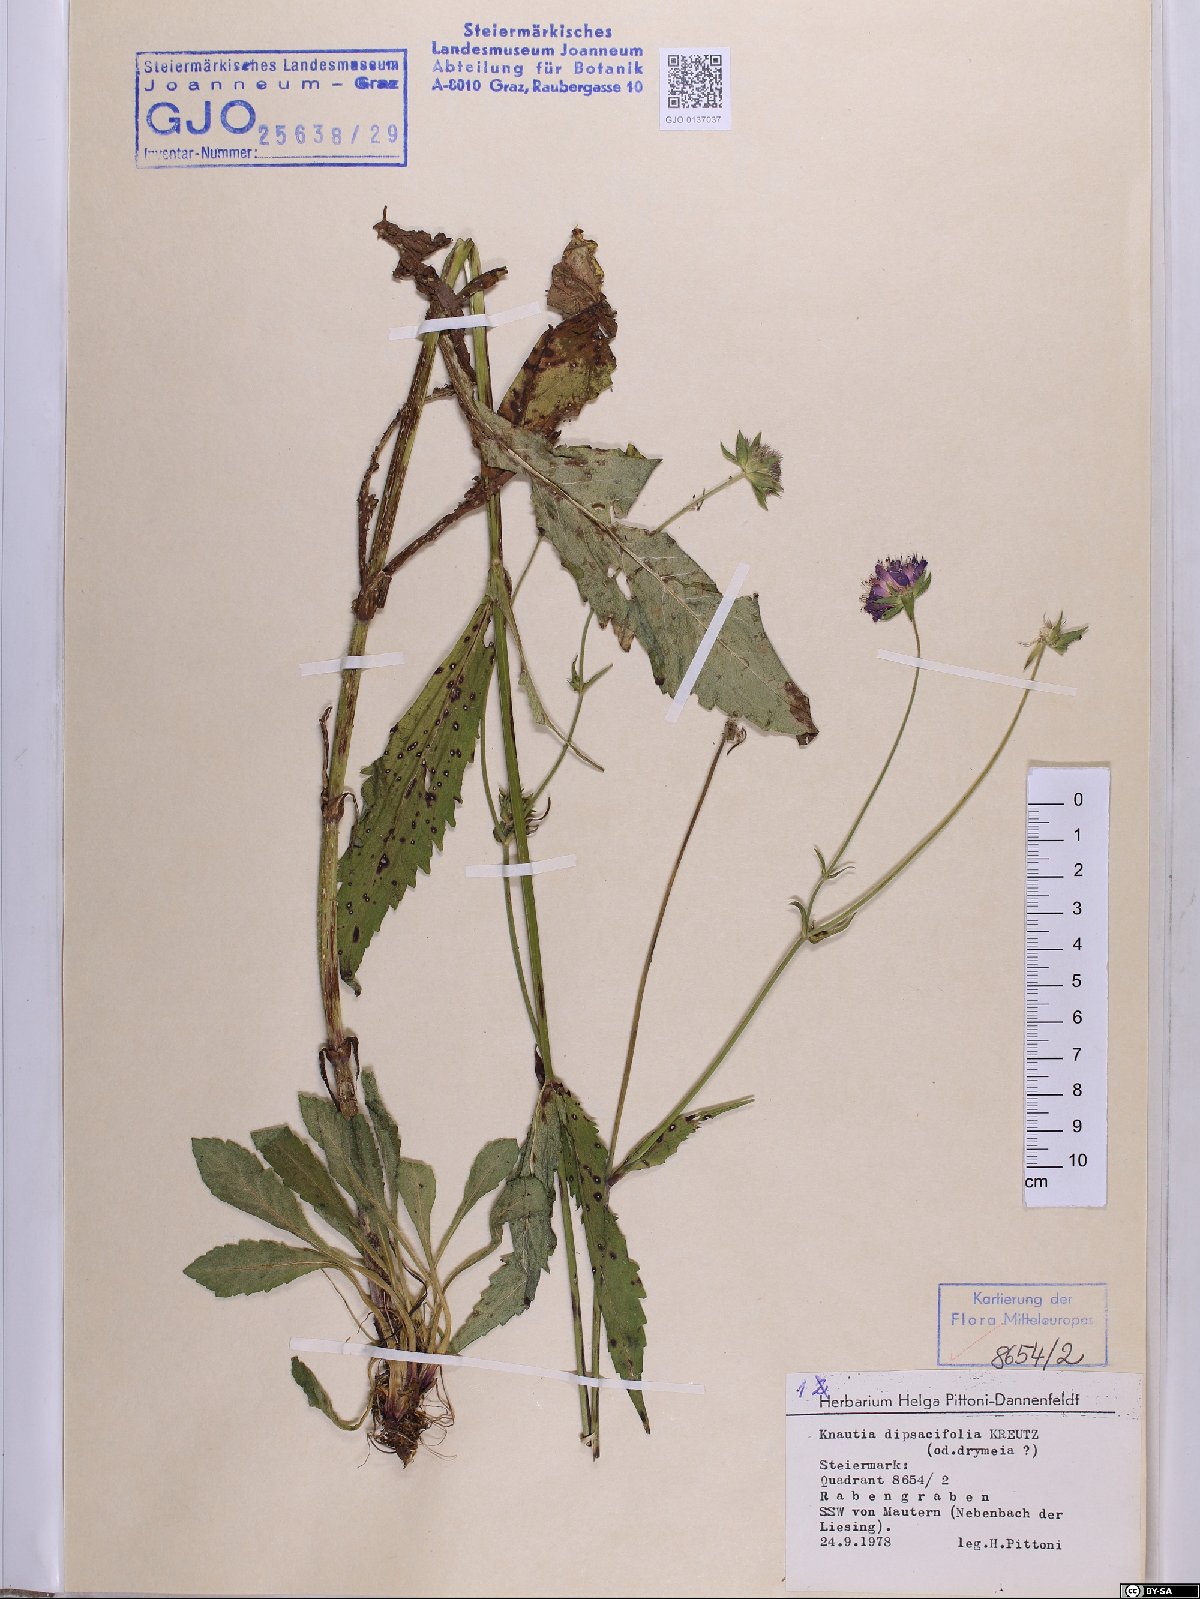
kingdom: Plantae
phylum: Tracheophyta
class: Magnoliopsida
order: Dipsacales
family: Caprifoliaceae
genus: Knautia
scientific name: Knautia dipsacifolia
